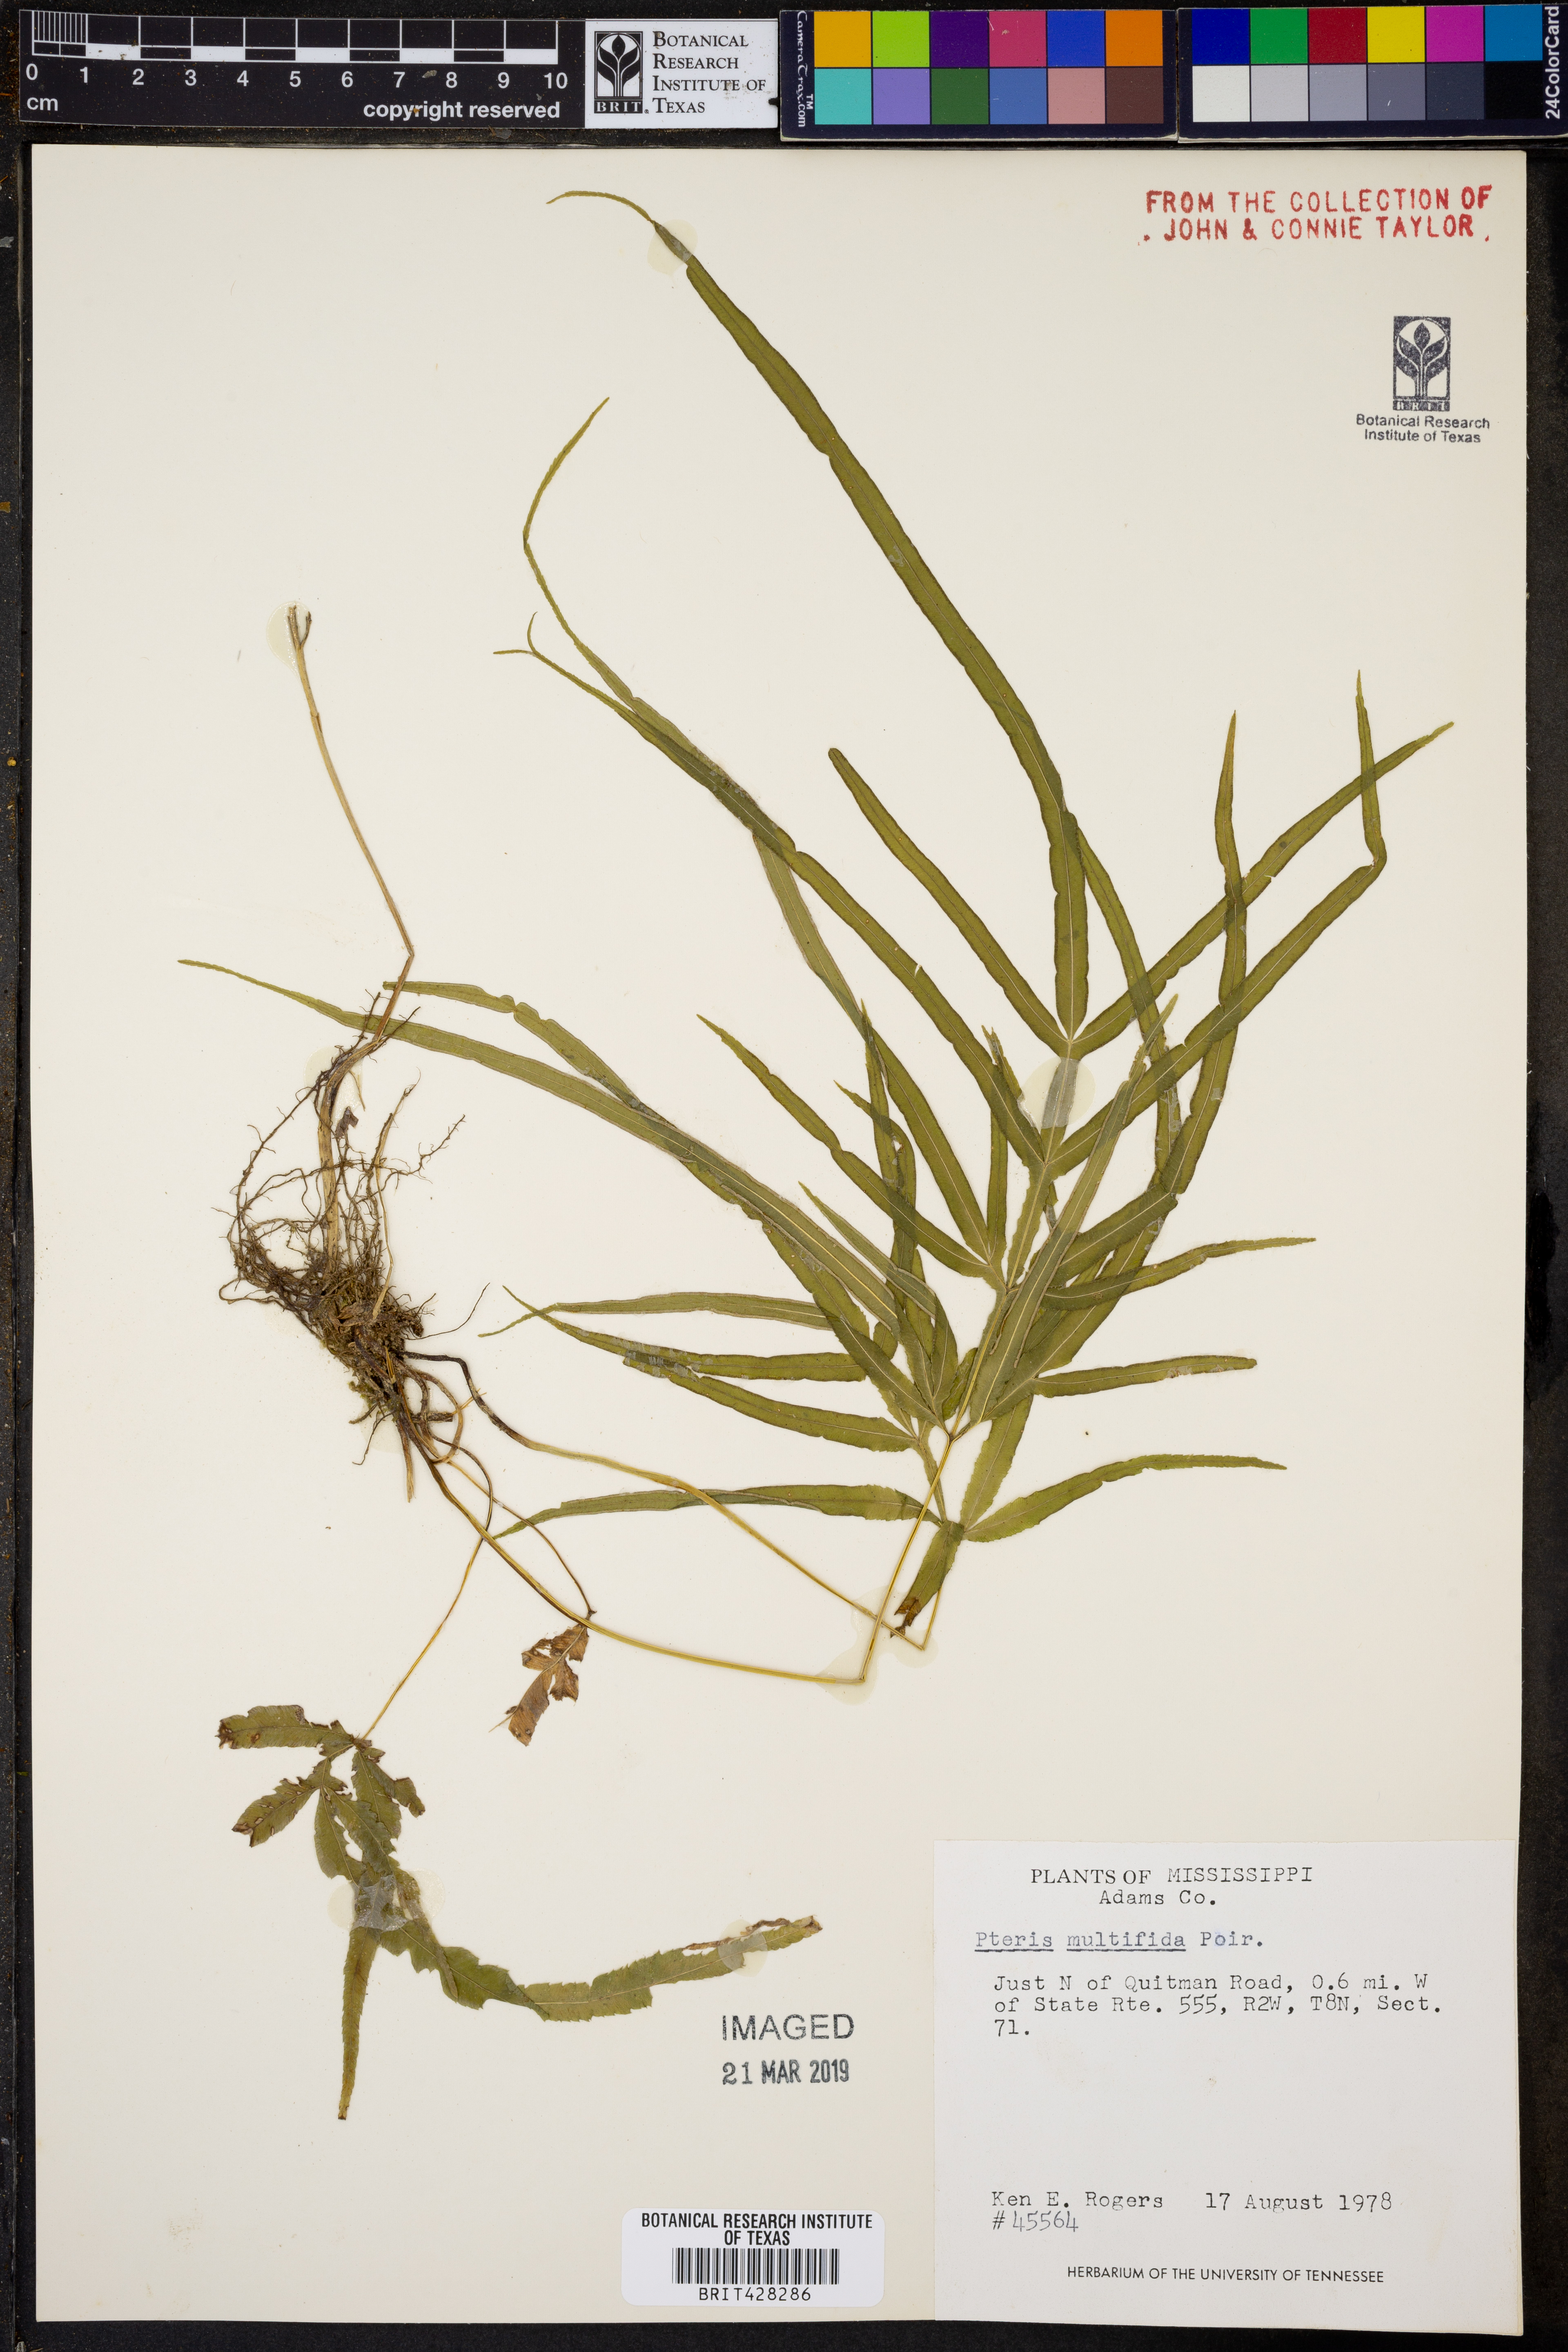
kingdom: Plantae
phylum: Tracheophyta
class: Polypodiopsida
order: Polypodiales
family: Pteridaceae
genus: Pteris
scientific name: Pteris multifida
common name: Spider brake
